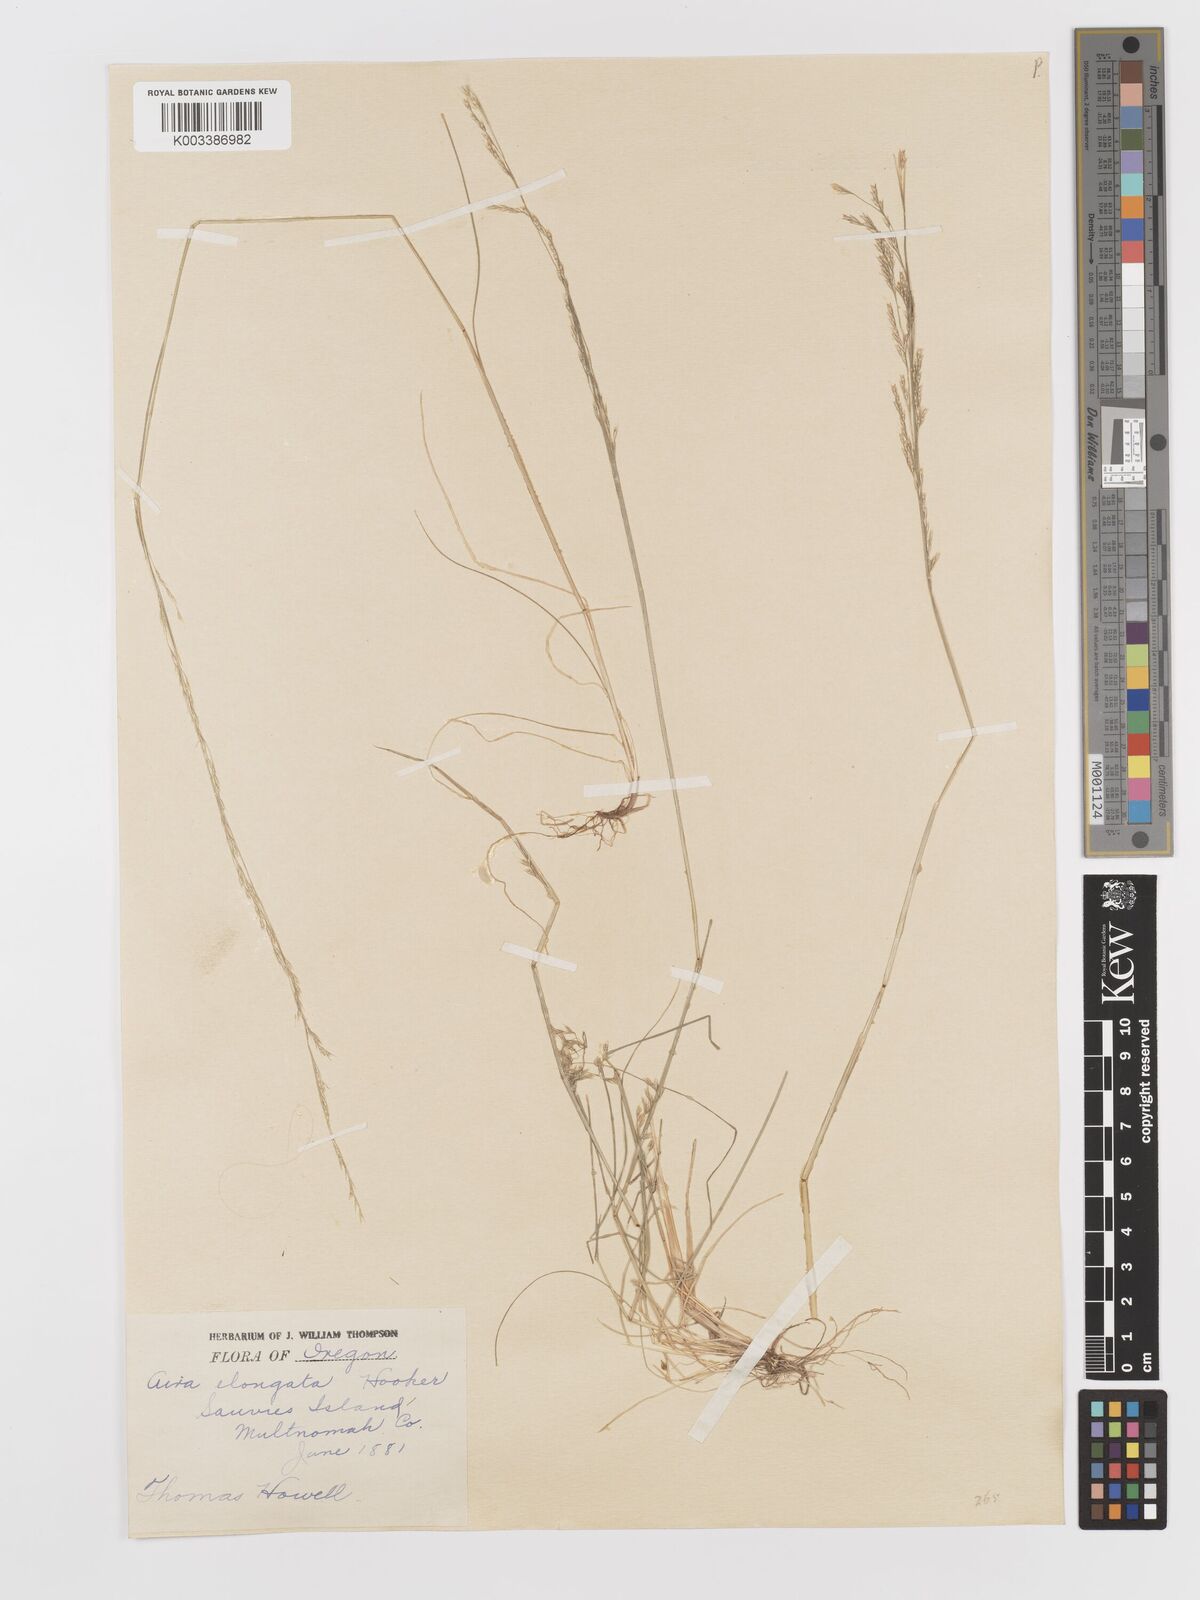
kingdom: Plantae
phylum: Tracheophyta
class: Liliopsida
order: Poales
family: Poaceae
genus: Deschampsia
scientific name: Deschampsia elongata
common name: Slender hairgrass
